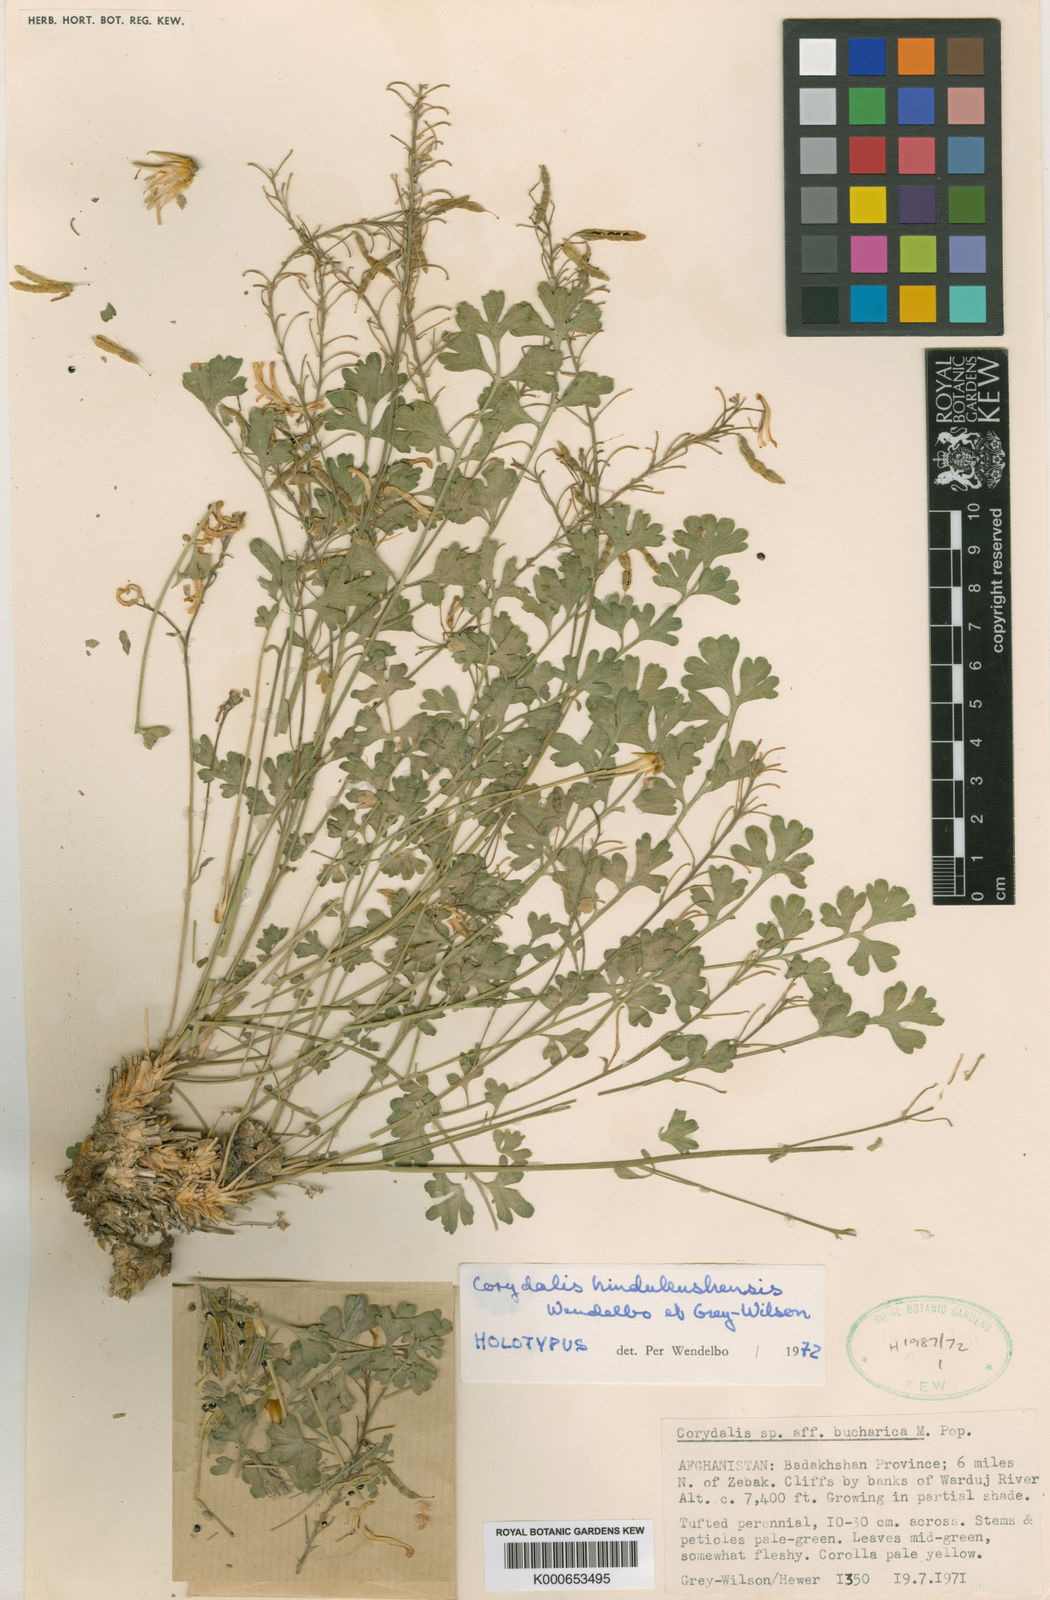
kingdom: Plantae
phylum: Tracheophyta
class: Magnoliopsida
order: Ranunculales
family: Papaveraceae
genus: Corydalis
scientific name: Corydalis hindukushensis
